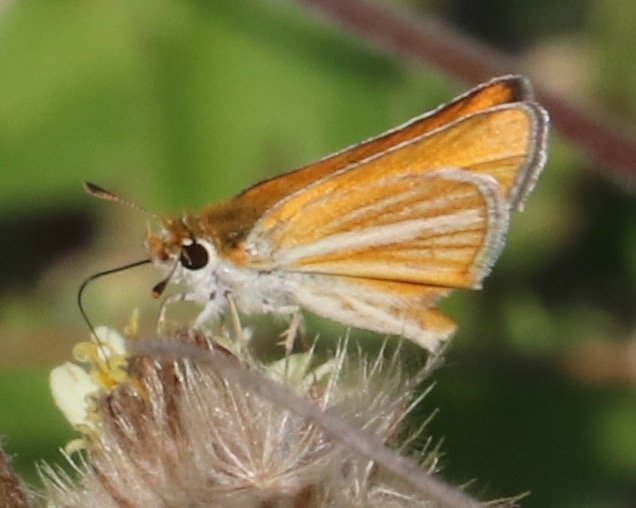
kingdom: Animalia
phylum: Arthropoda
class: Insecta
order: Lepidoptera
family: Hesperiidae
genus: Copaeodes
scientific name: Copaeodes minima
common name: Southern Skipperling
